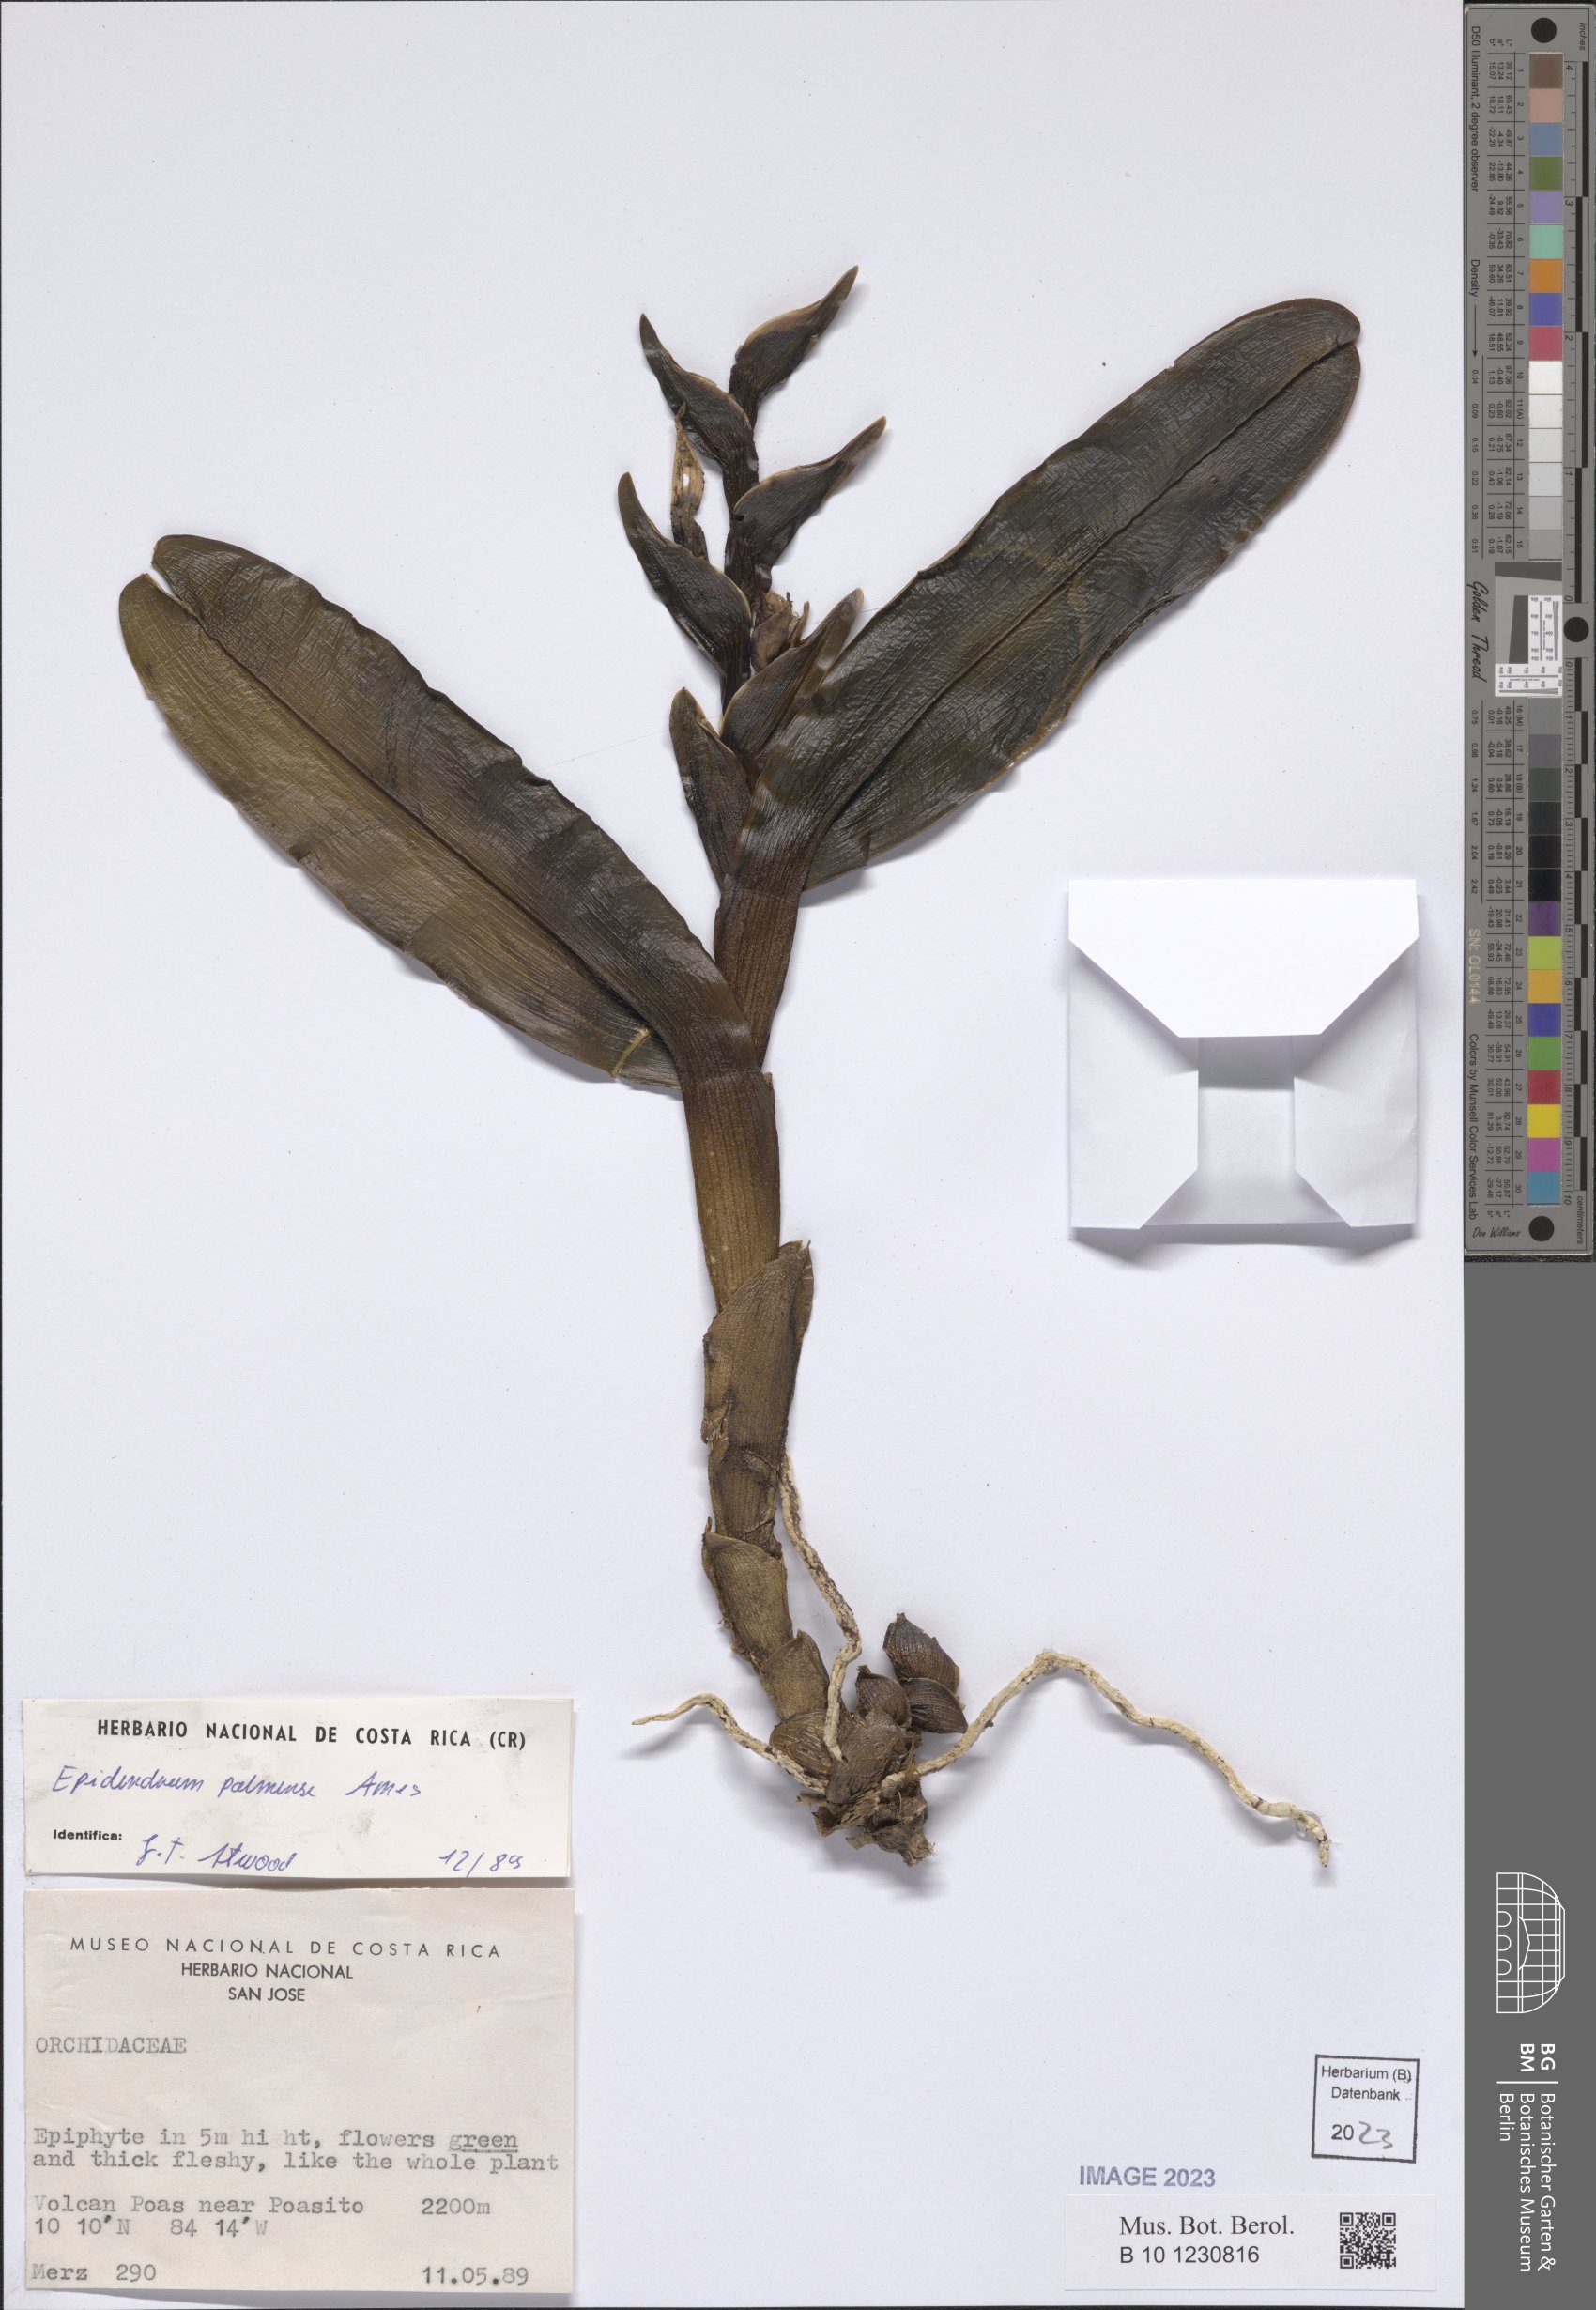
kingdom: Plantae
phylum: Tracheophyta
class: Liliopsida
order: Asparagales
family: Orchidaceae
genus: Epidendrum
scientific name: Epidendrum magnibracteatum
